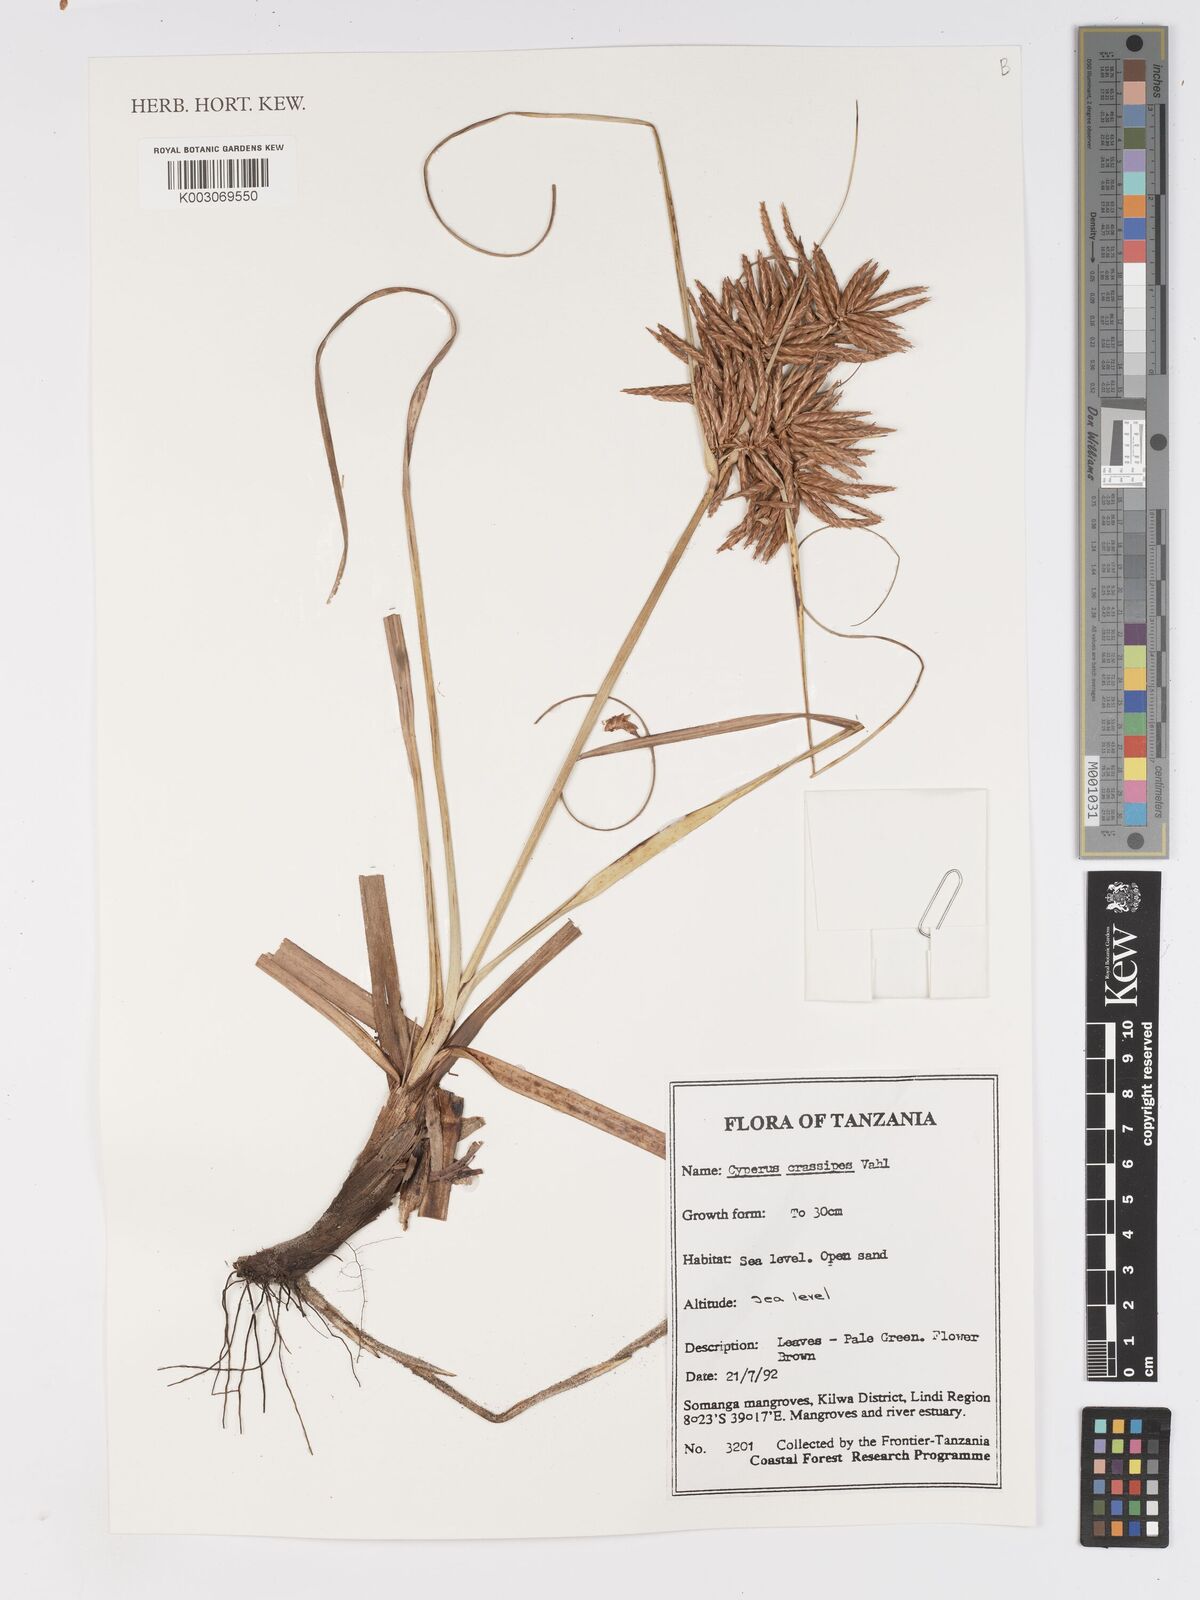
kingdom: Plantae
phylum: Tracheophyta
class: Liliopsida
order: Poales
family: Cyperaceae
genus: Cyperus
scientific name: Cyperus crassipes
